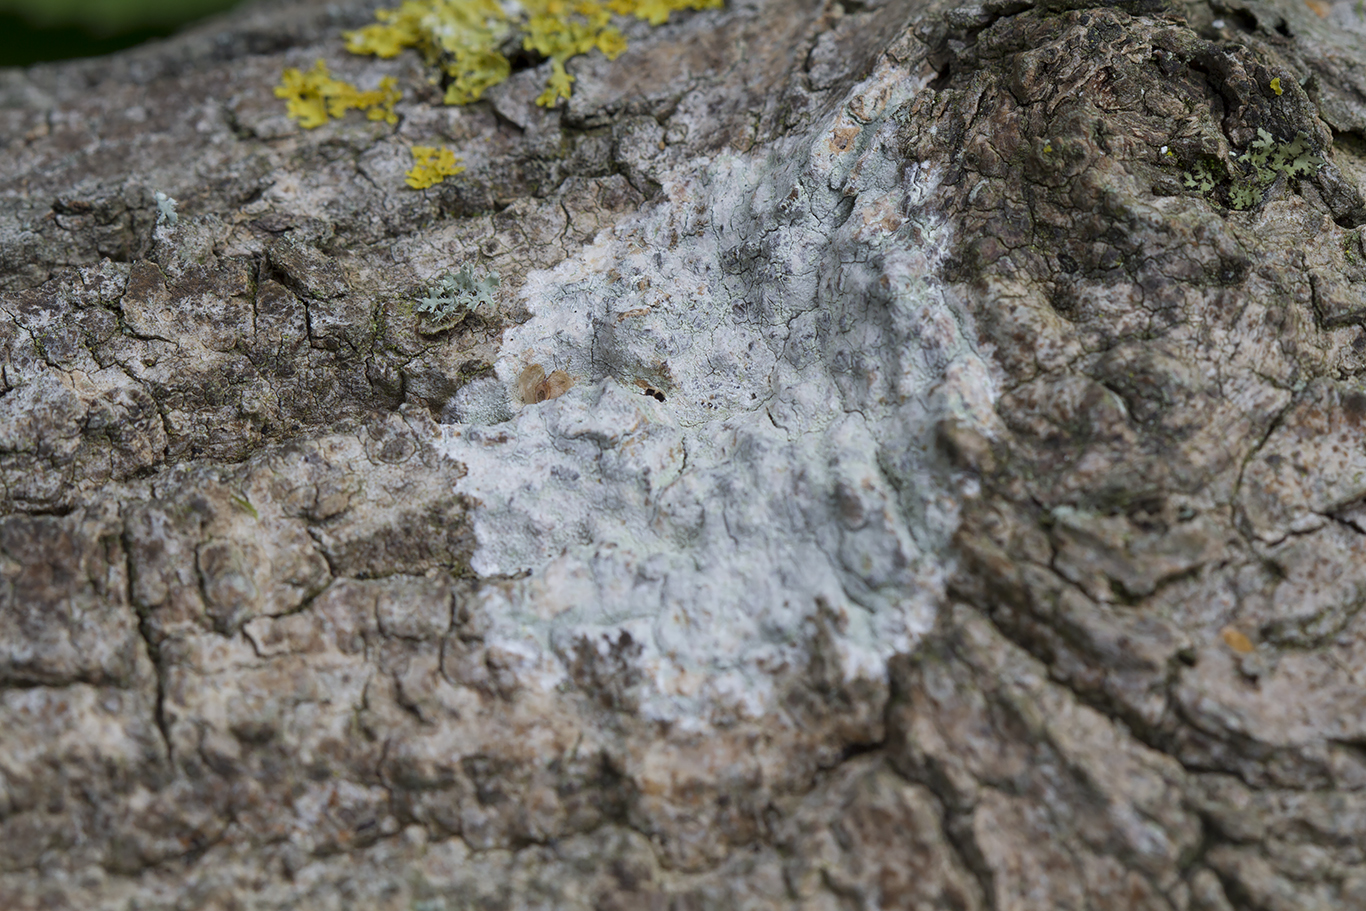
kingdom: Fungi
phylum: Ascomycota
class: Lecanoromycetes
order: Ostropales
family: Phlyctidaceae
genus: Phlyctis
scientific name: Phlyctis argena
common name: almindelig sølvlav
